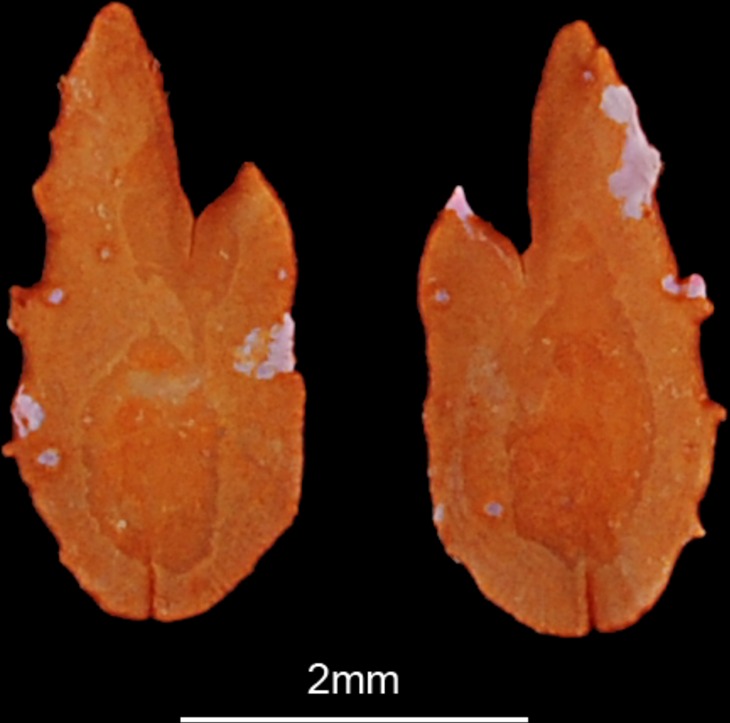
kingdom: Animalia
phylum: Chordata
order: Clupeiformes
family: Dussumieriidae
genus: Dussumieria
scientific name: Dussumieria elopsoides
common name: Slender rainbow sardine
